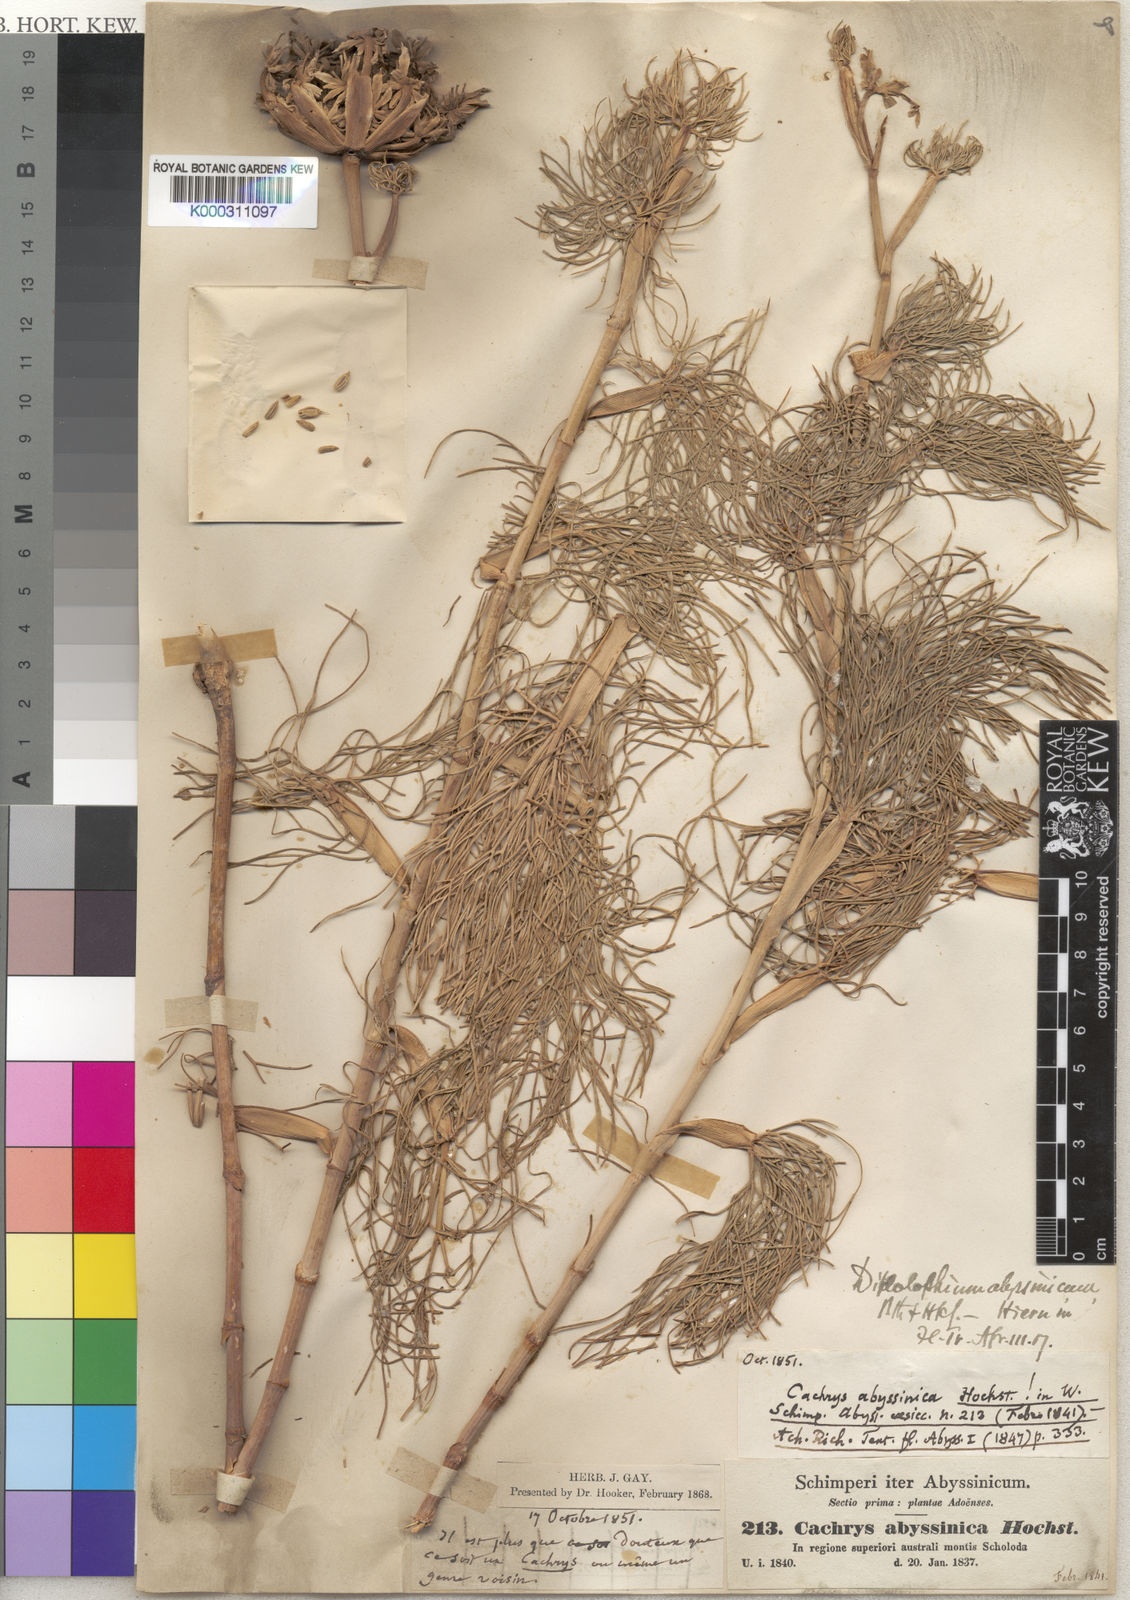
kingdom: Plantae
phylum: Tracheophyta
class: Magnoliopsida
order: Apiales
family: Apiaceae
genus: Diplolophium
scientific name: Diplolophium africanum
